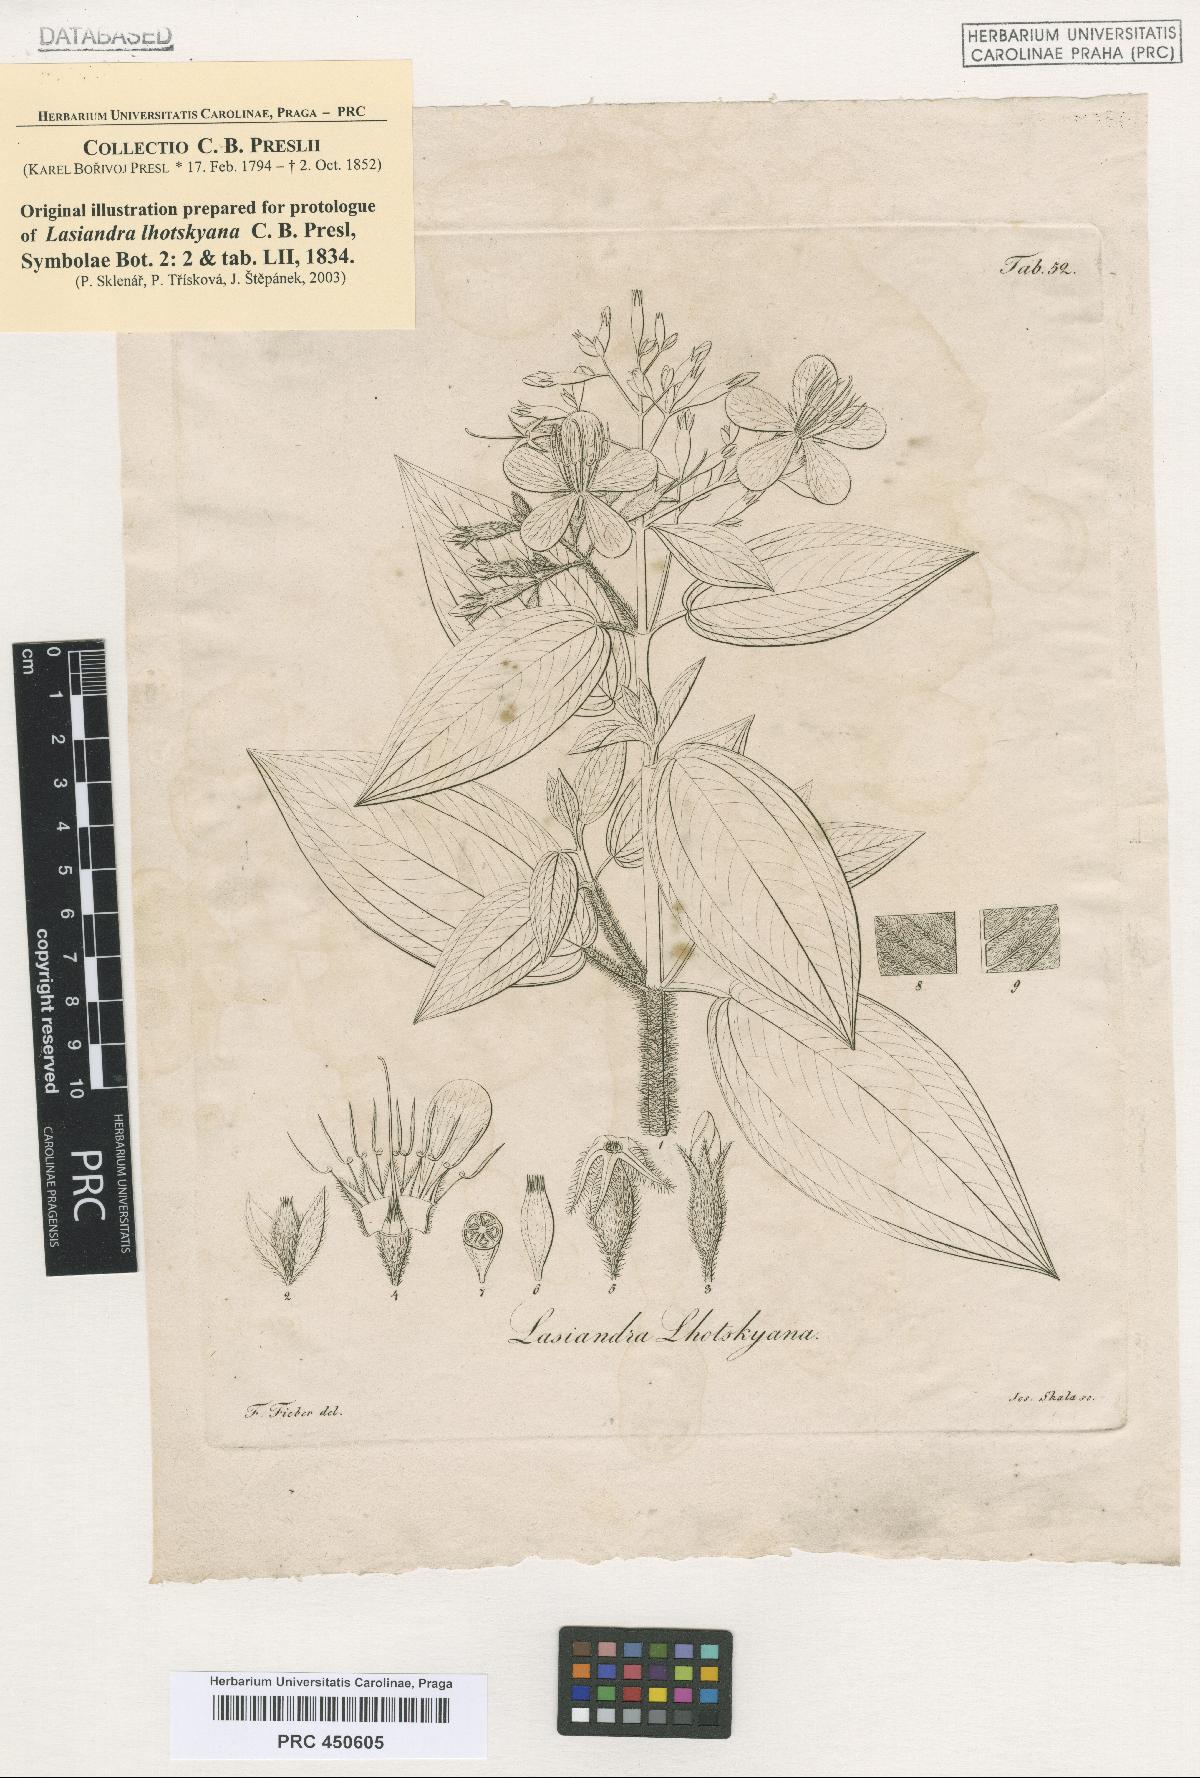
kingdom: Plantae
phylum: Tracheophyta
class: Magnoliopsida
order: Myrtales
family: Melastomataceae
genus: Chaetogastra
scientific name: Chaetogastra lhotskyana
